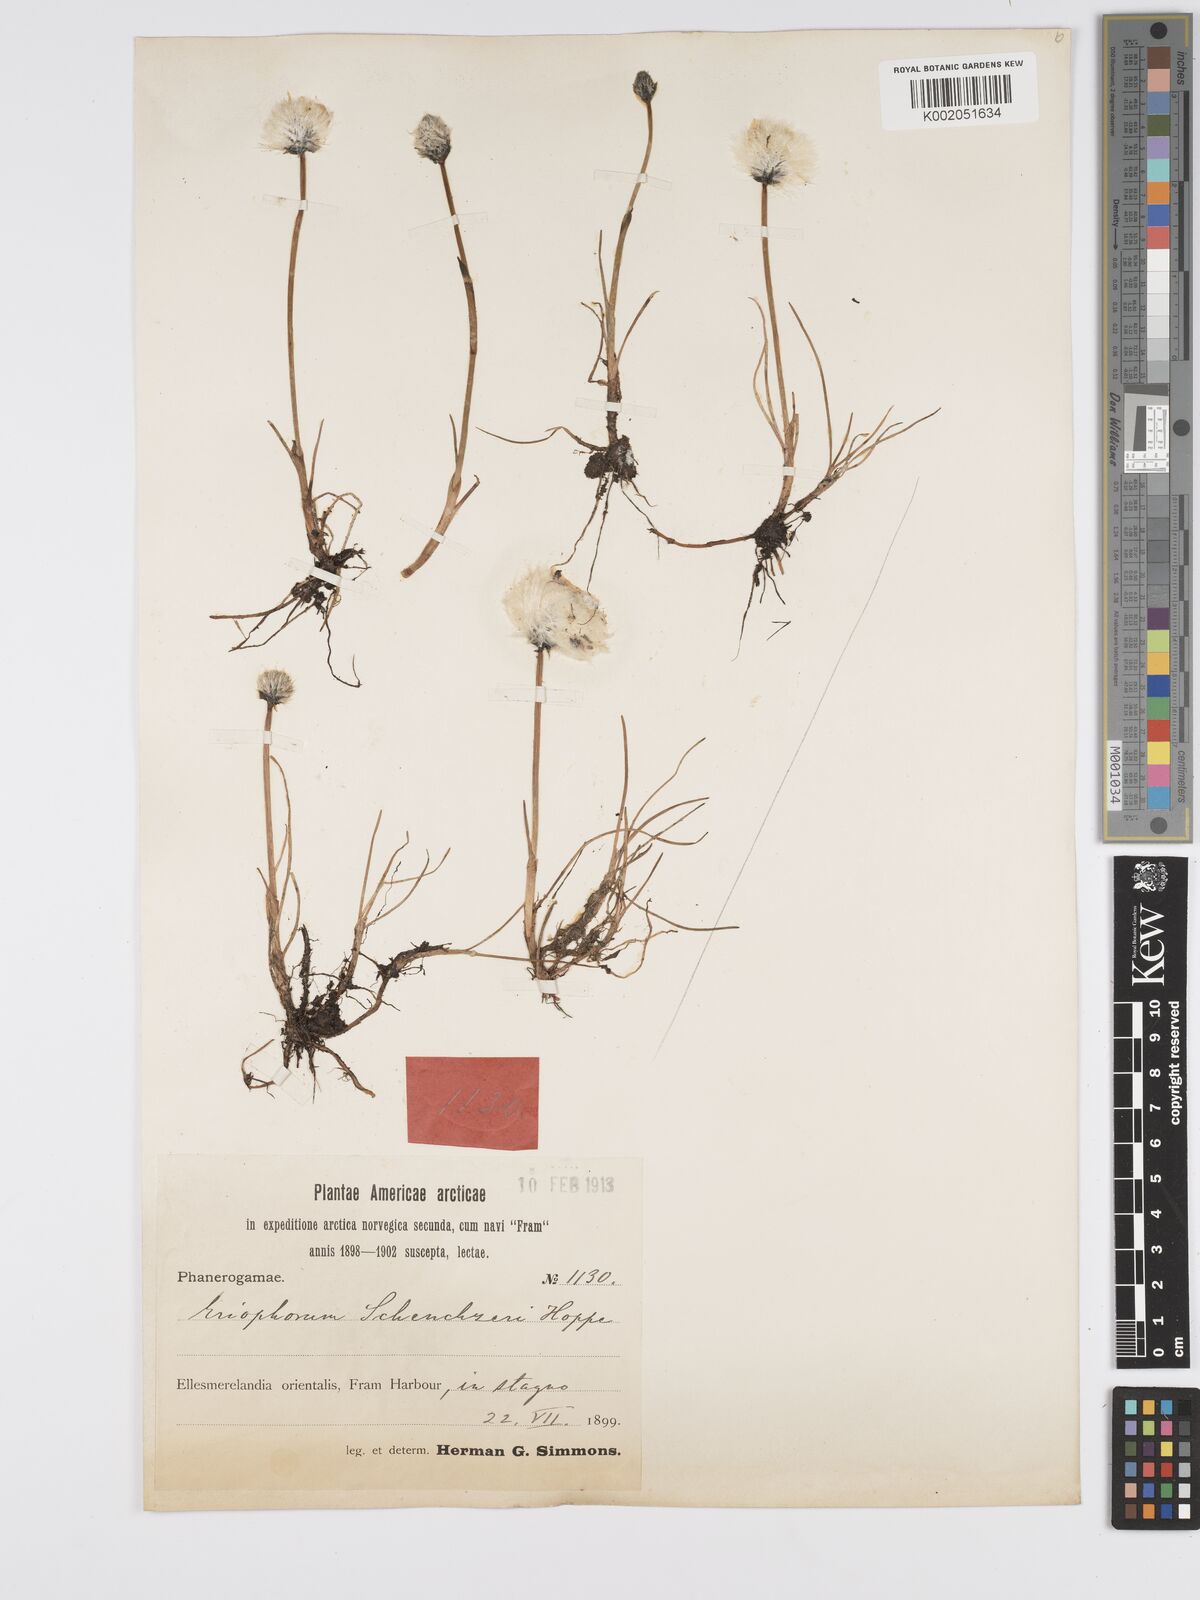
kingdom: Plantae
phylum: Tracheophyta
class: Liliopsida
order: Poales
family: Cyperaceae
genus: Eriophorum
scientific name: Eriophorum scheuchzeri
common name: Scheuchzer's cottongrass
